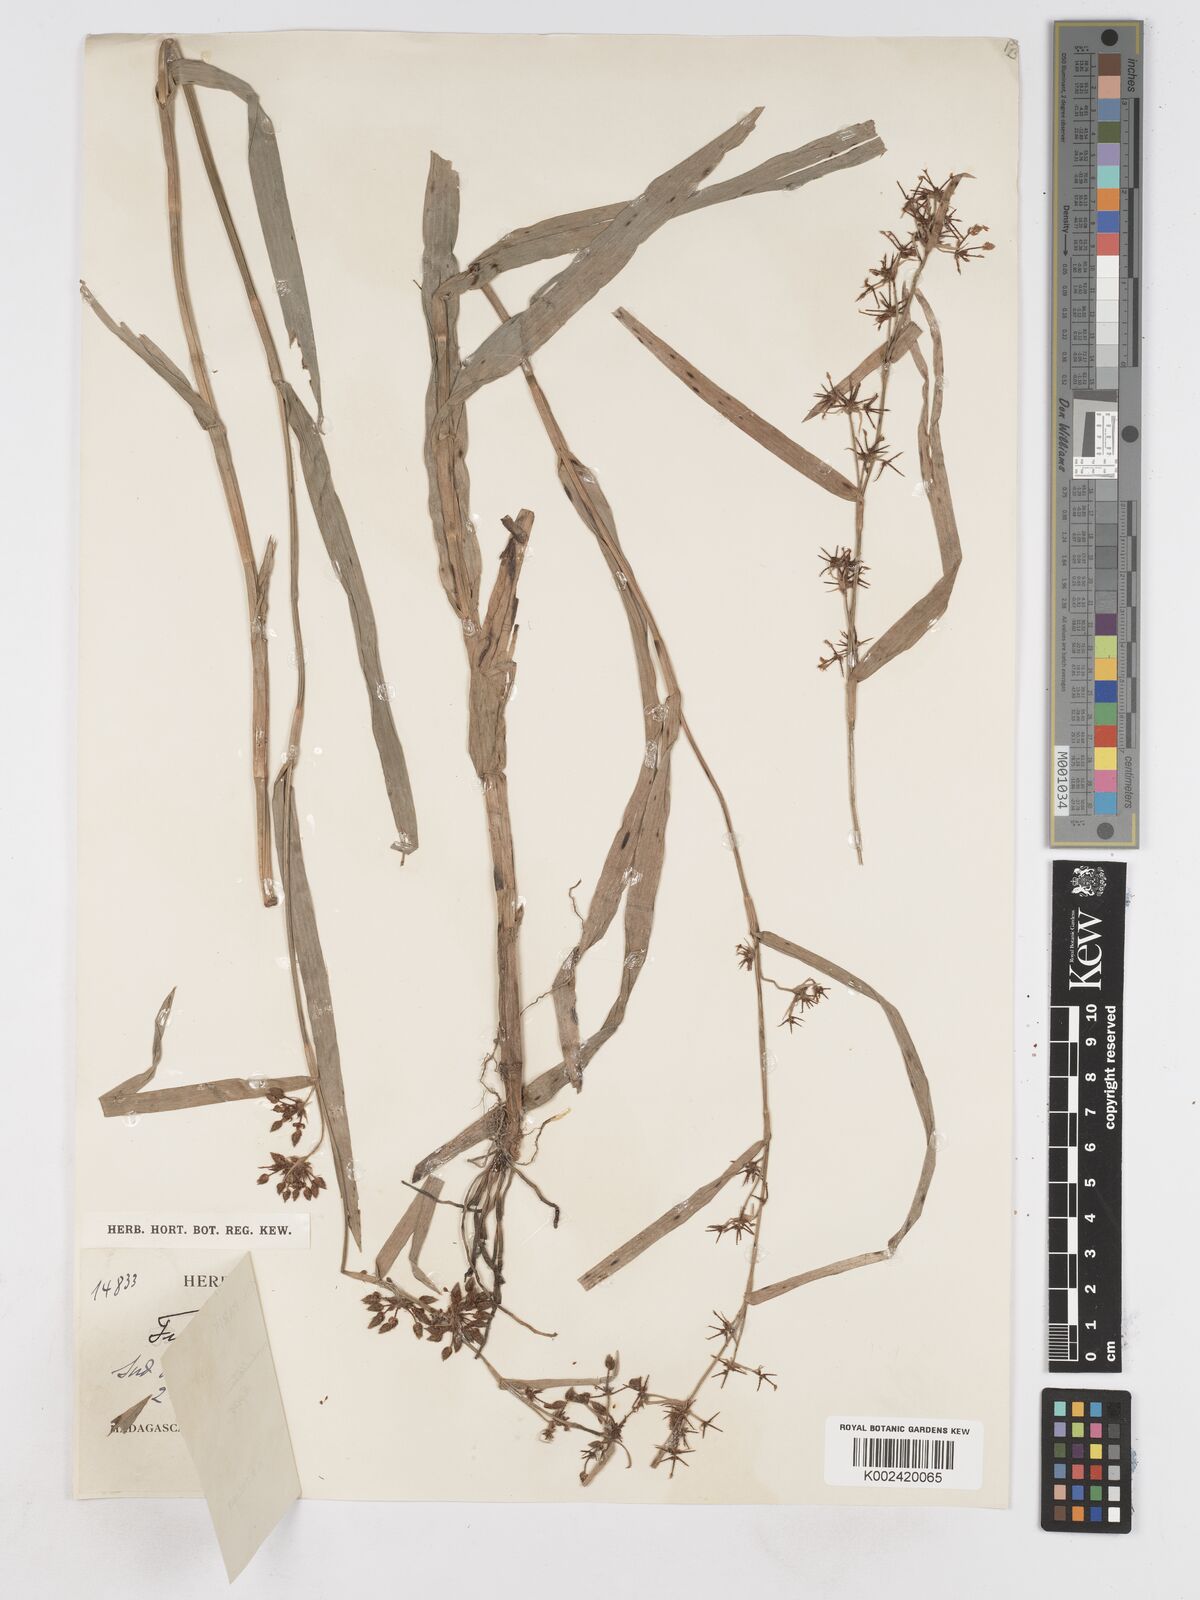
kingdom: Plantae
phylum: Tracheophyta
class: Liliopsida
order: Poales
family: Cyperaceae
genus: Fuirena
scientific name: Fuirena umbellata
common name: Yefen
